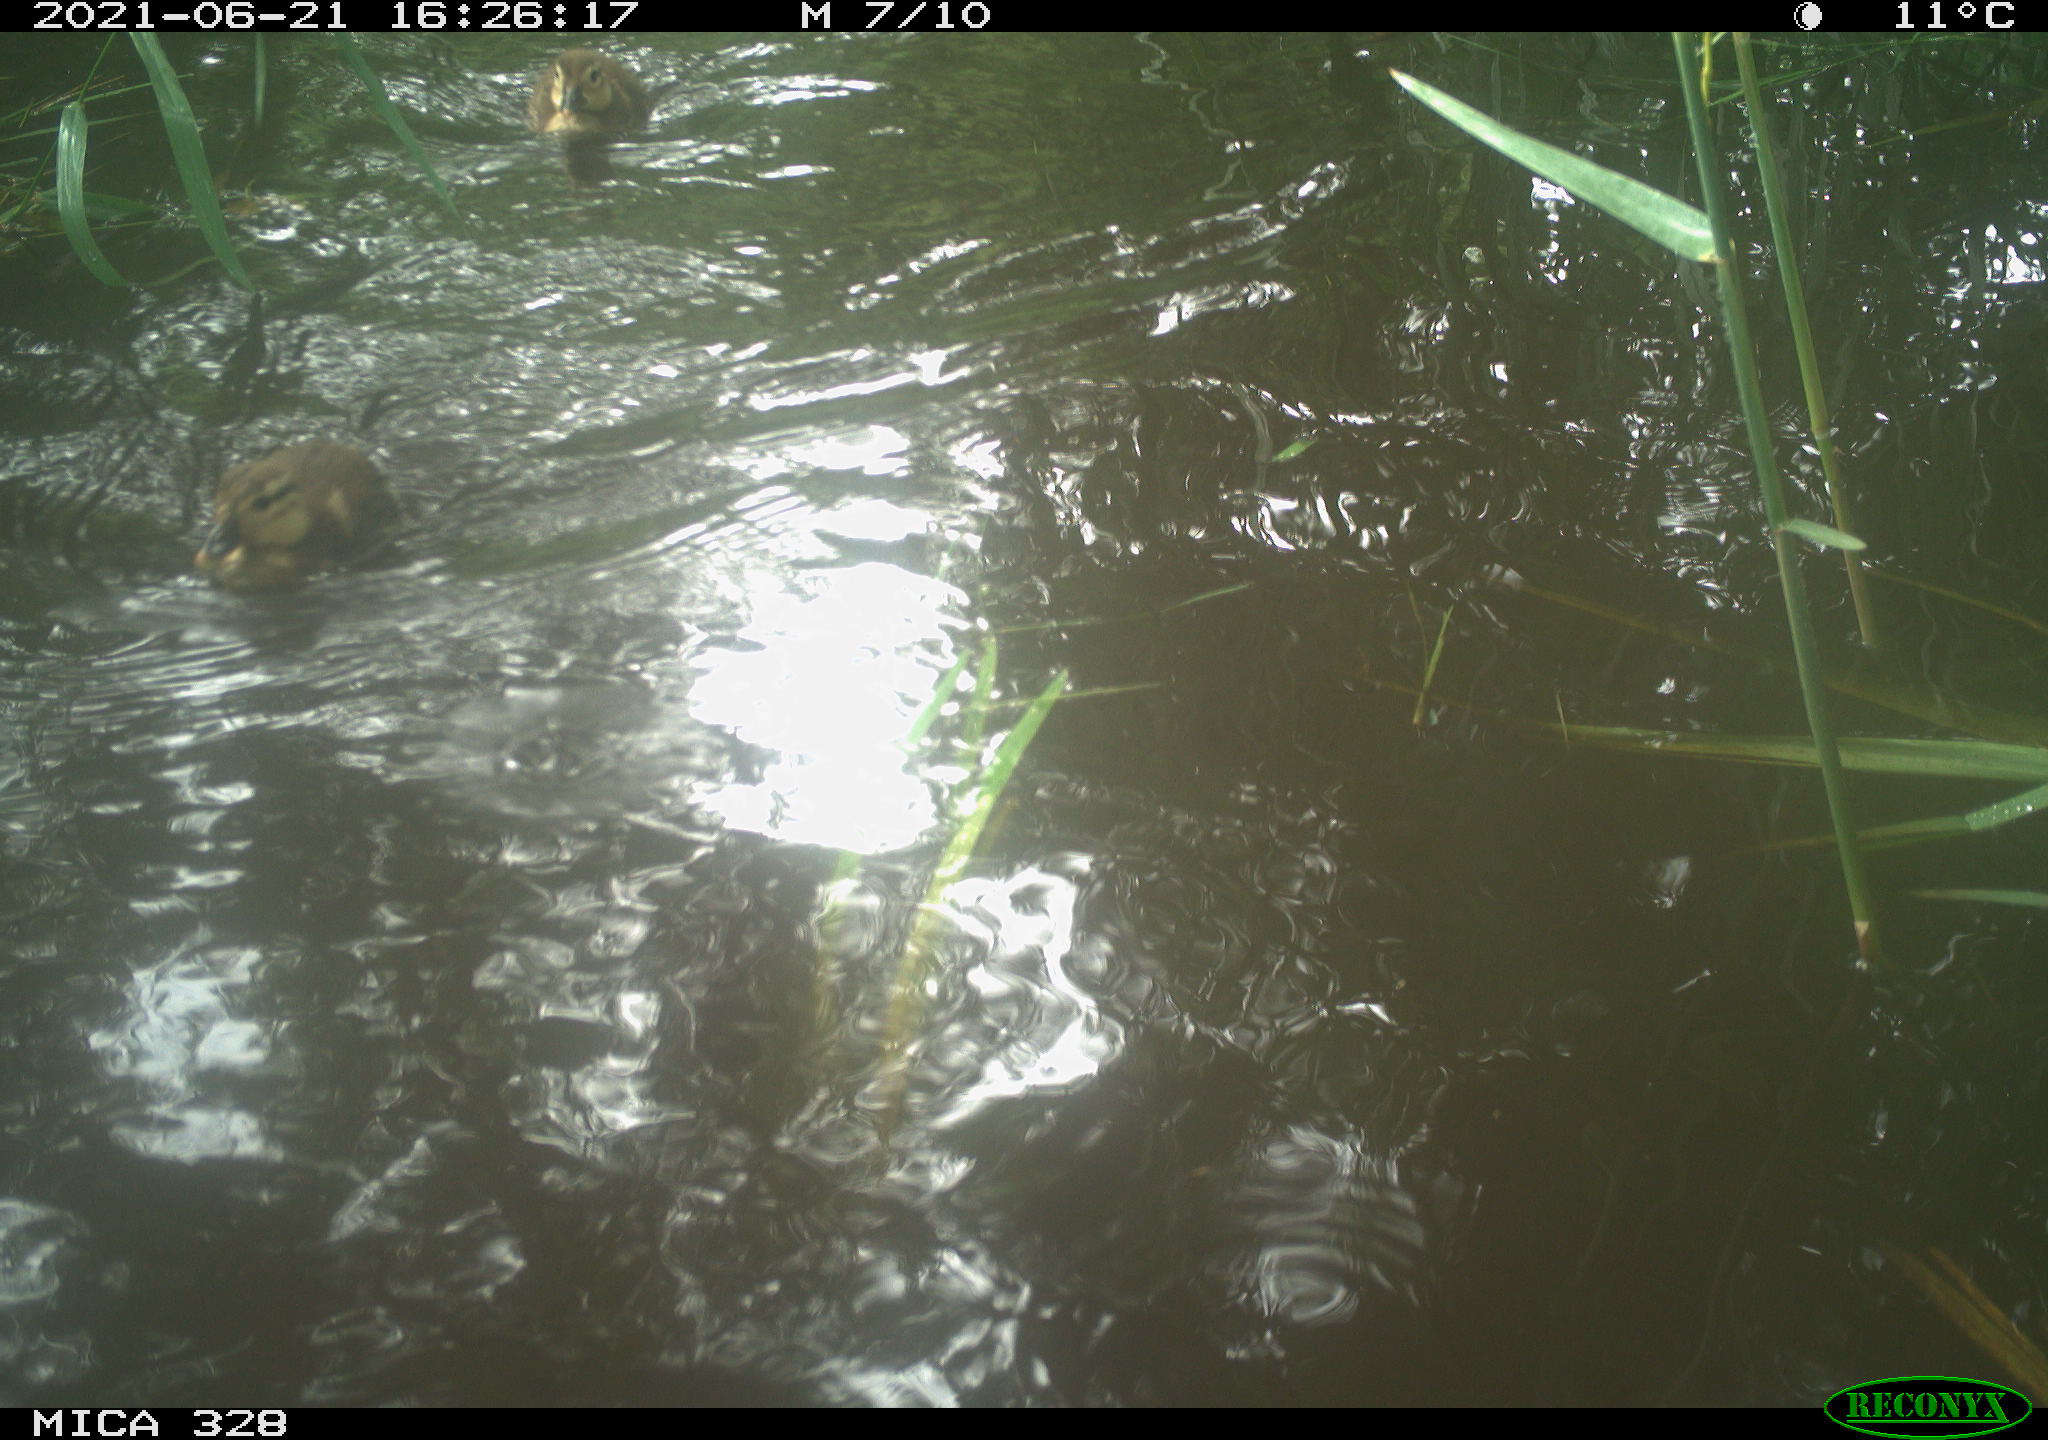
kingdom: Animalia
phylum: Chordata
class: Aves
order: Anseriformes
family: Anatidae
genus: Aix
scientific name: Aix galericulata
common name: Mandarin duck
